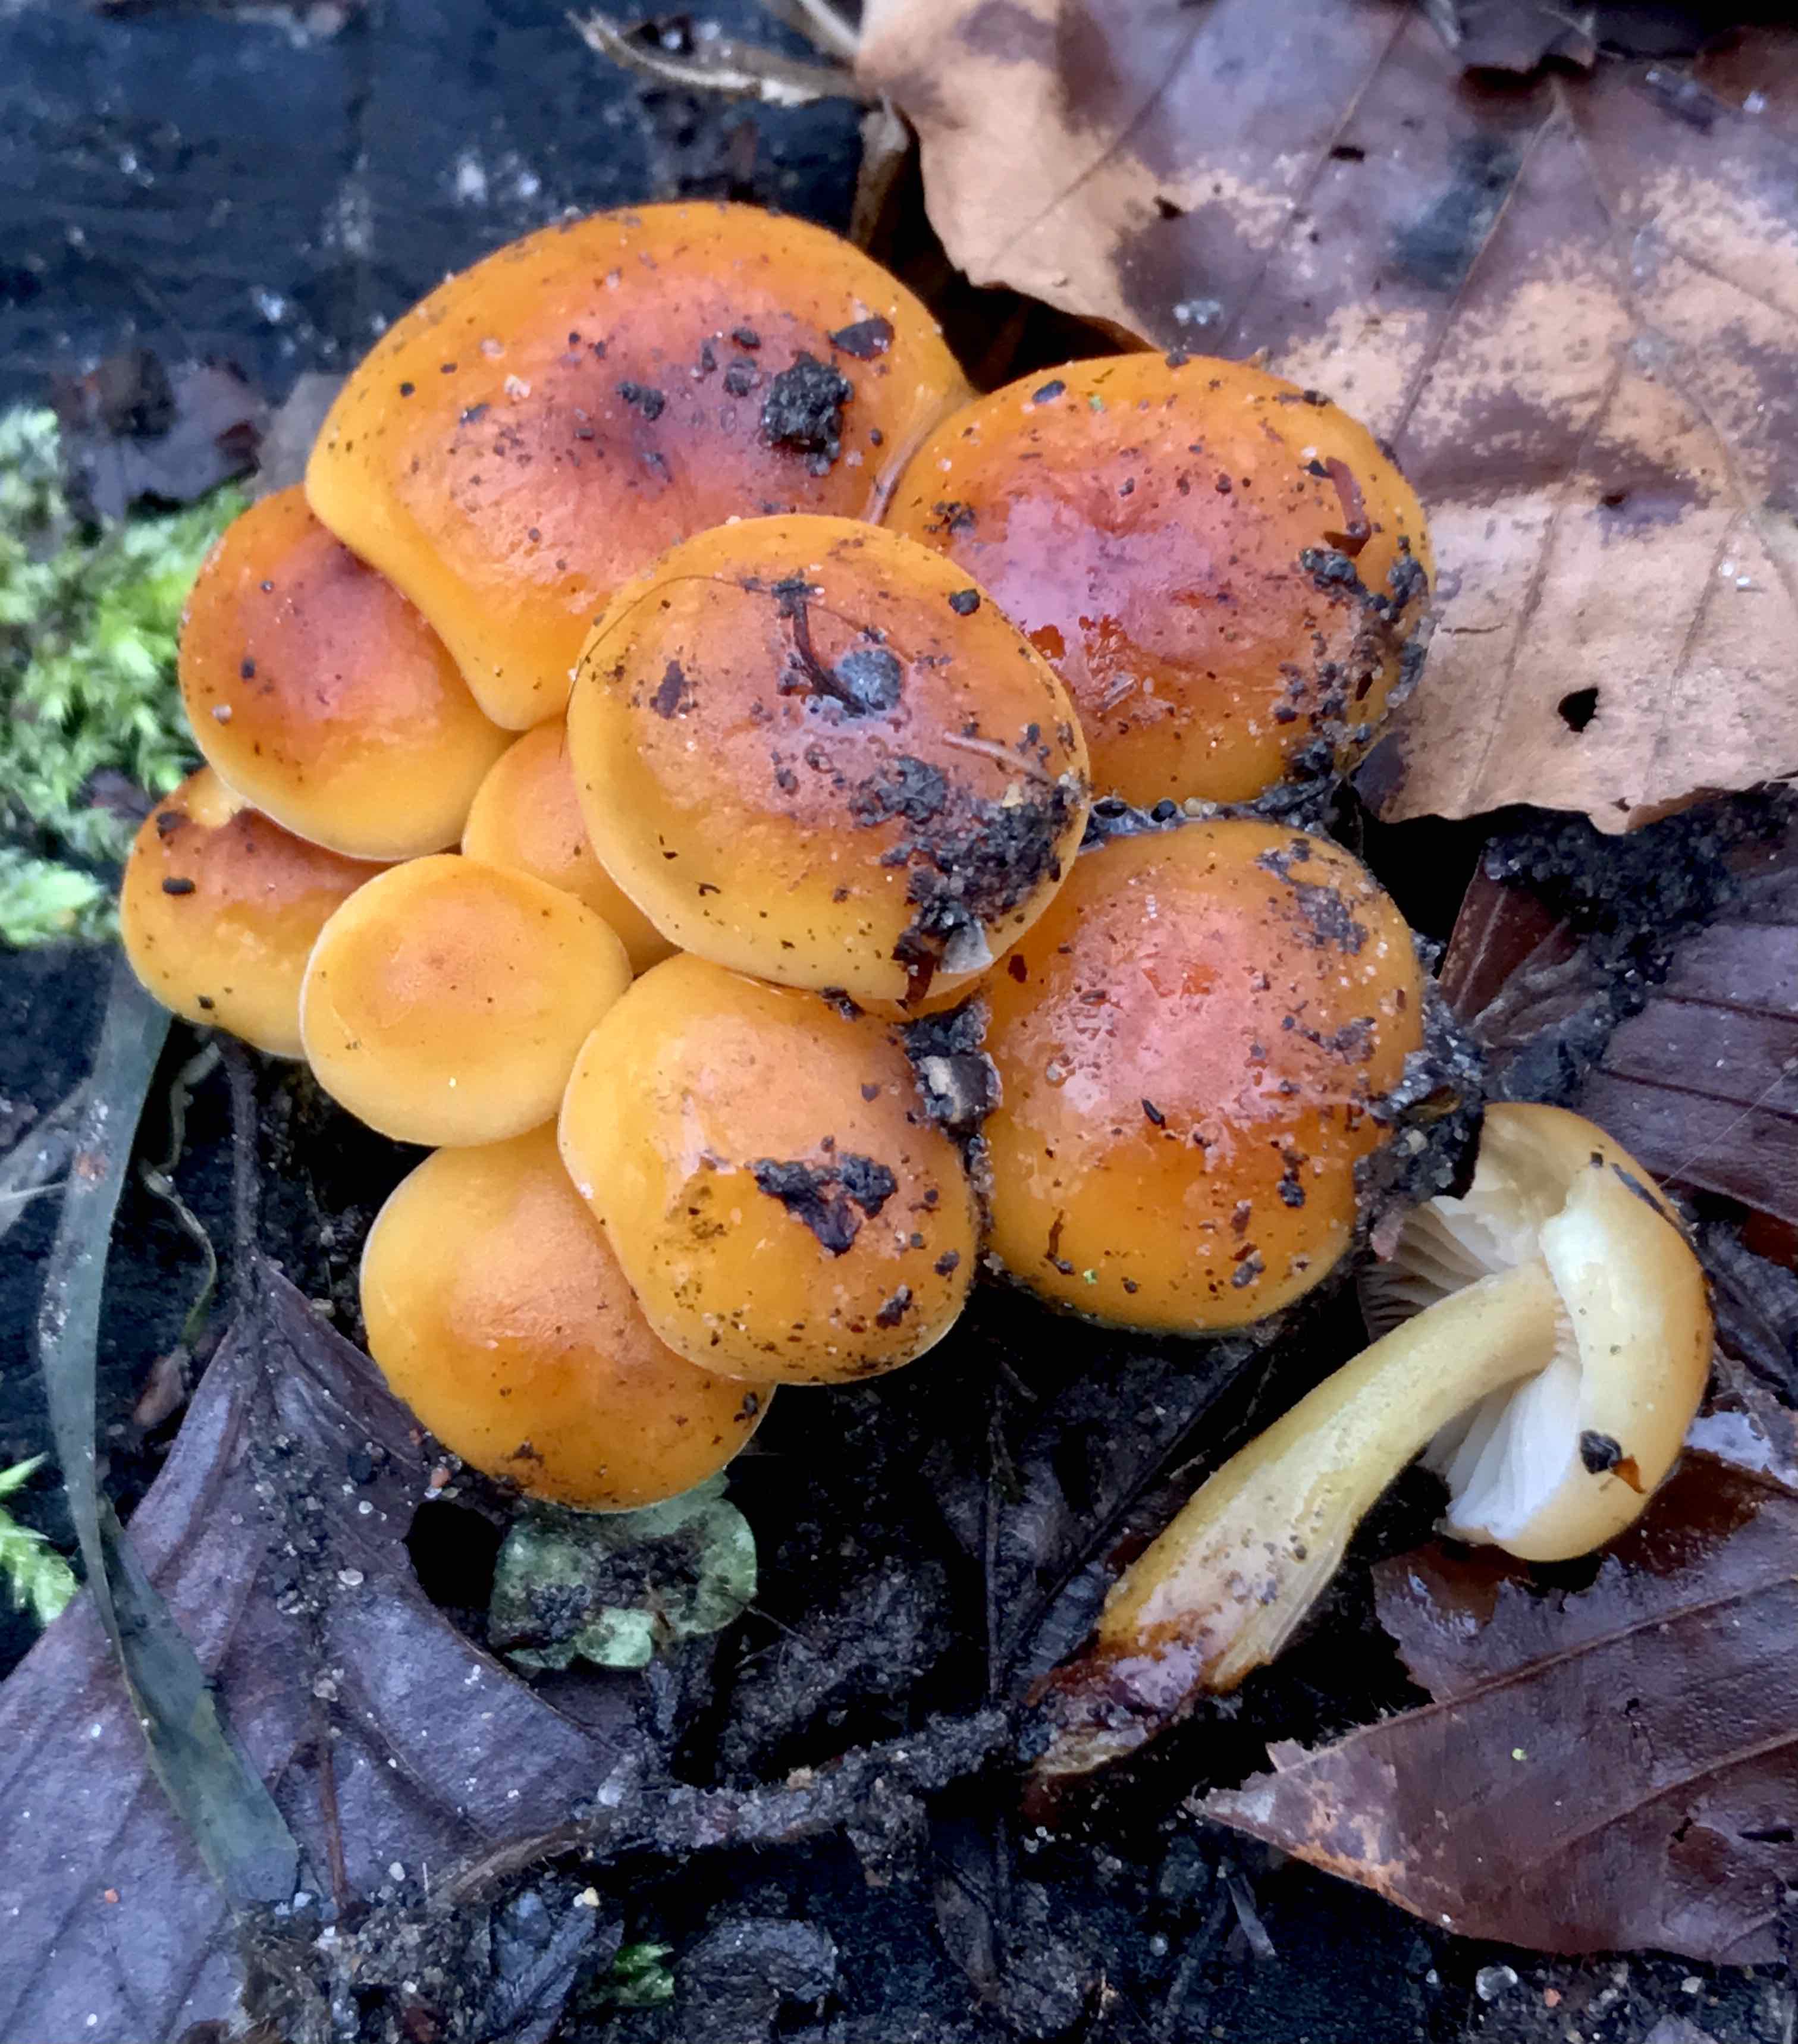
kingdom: Fungi
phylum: Basidiomycota
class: Agaricomycetes
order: Agaricales
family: Physalacriaceae
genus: Flammulina
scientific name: Flammulina velutipes
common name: gul fløjlsfod
